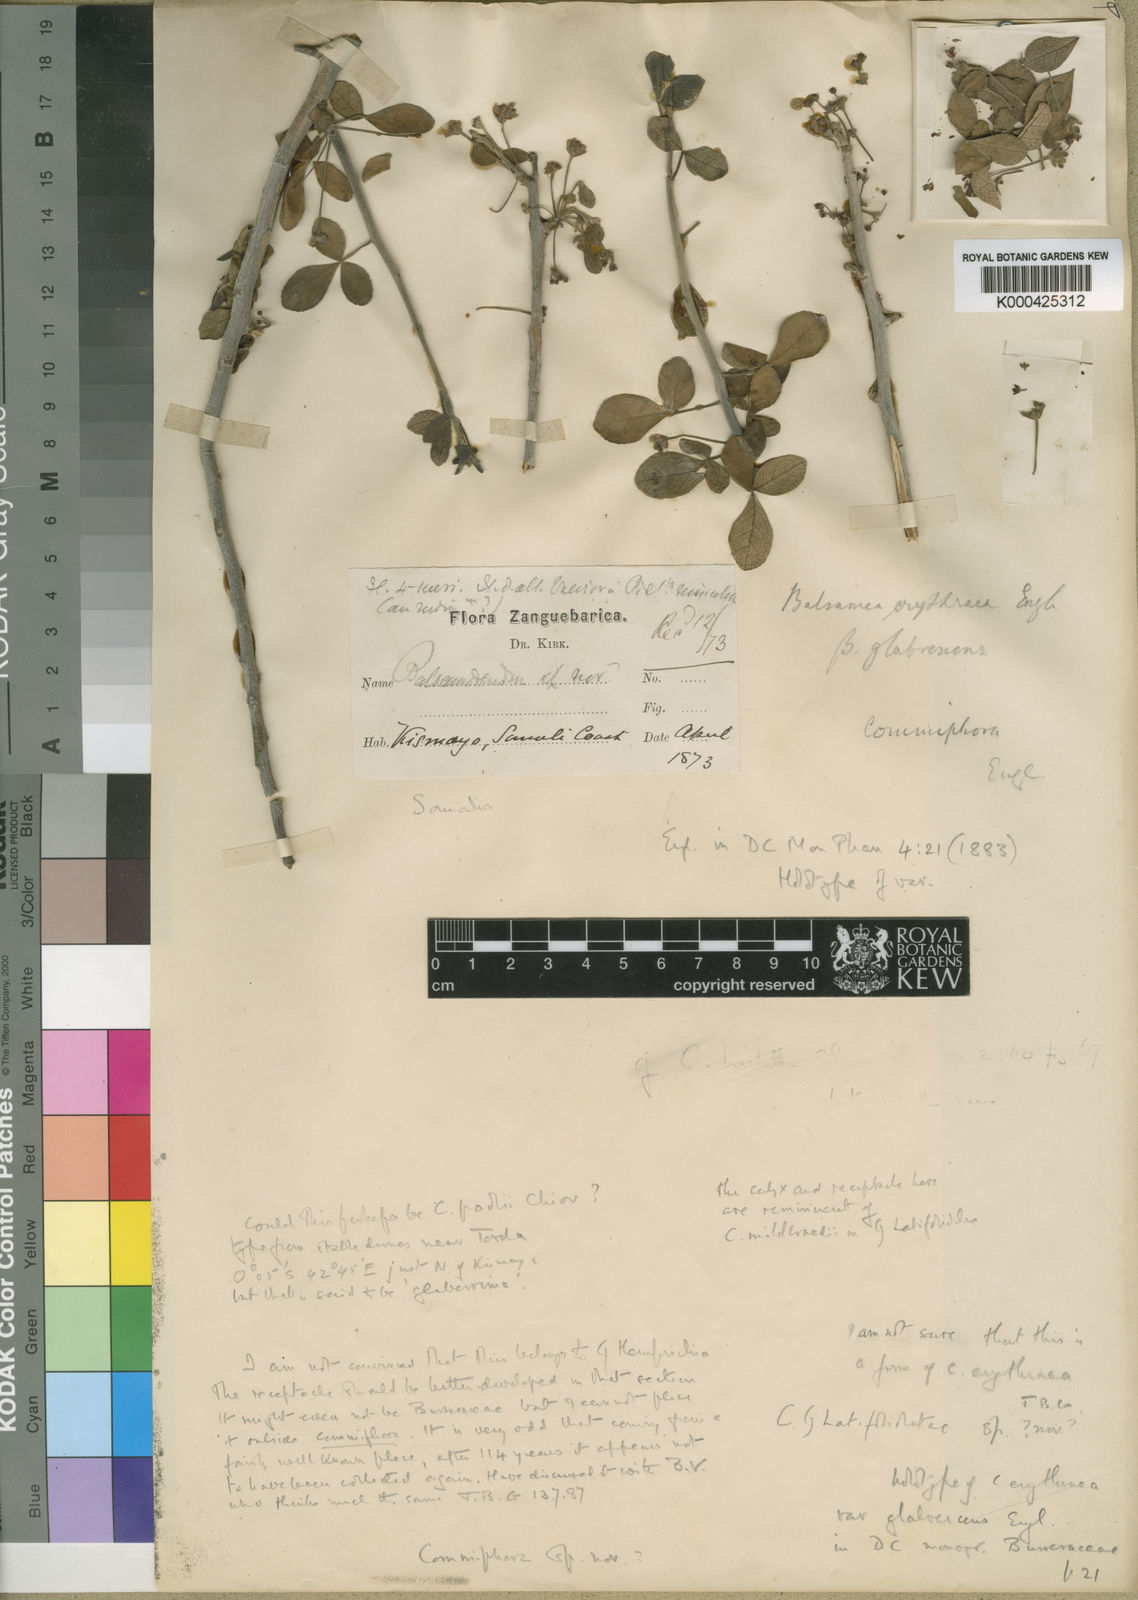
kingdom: Plantae
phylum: Tracheophyta
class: Magnoliopsida
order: Sapindales
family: Burseraceae
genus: Commiphora
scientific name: Commiphora kataf
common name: Bisabol myrrh
